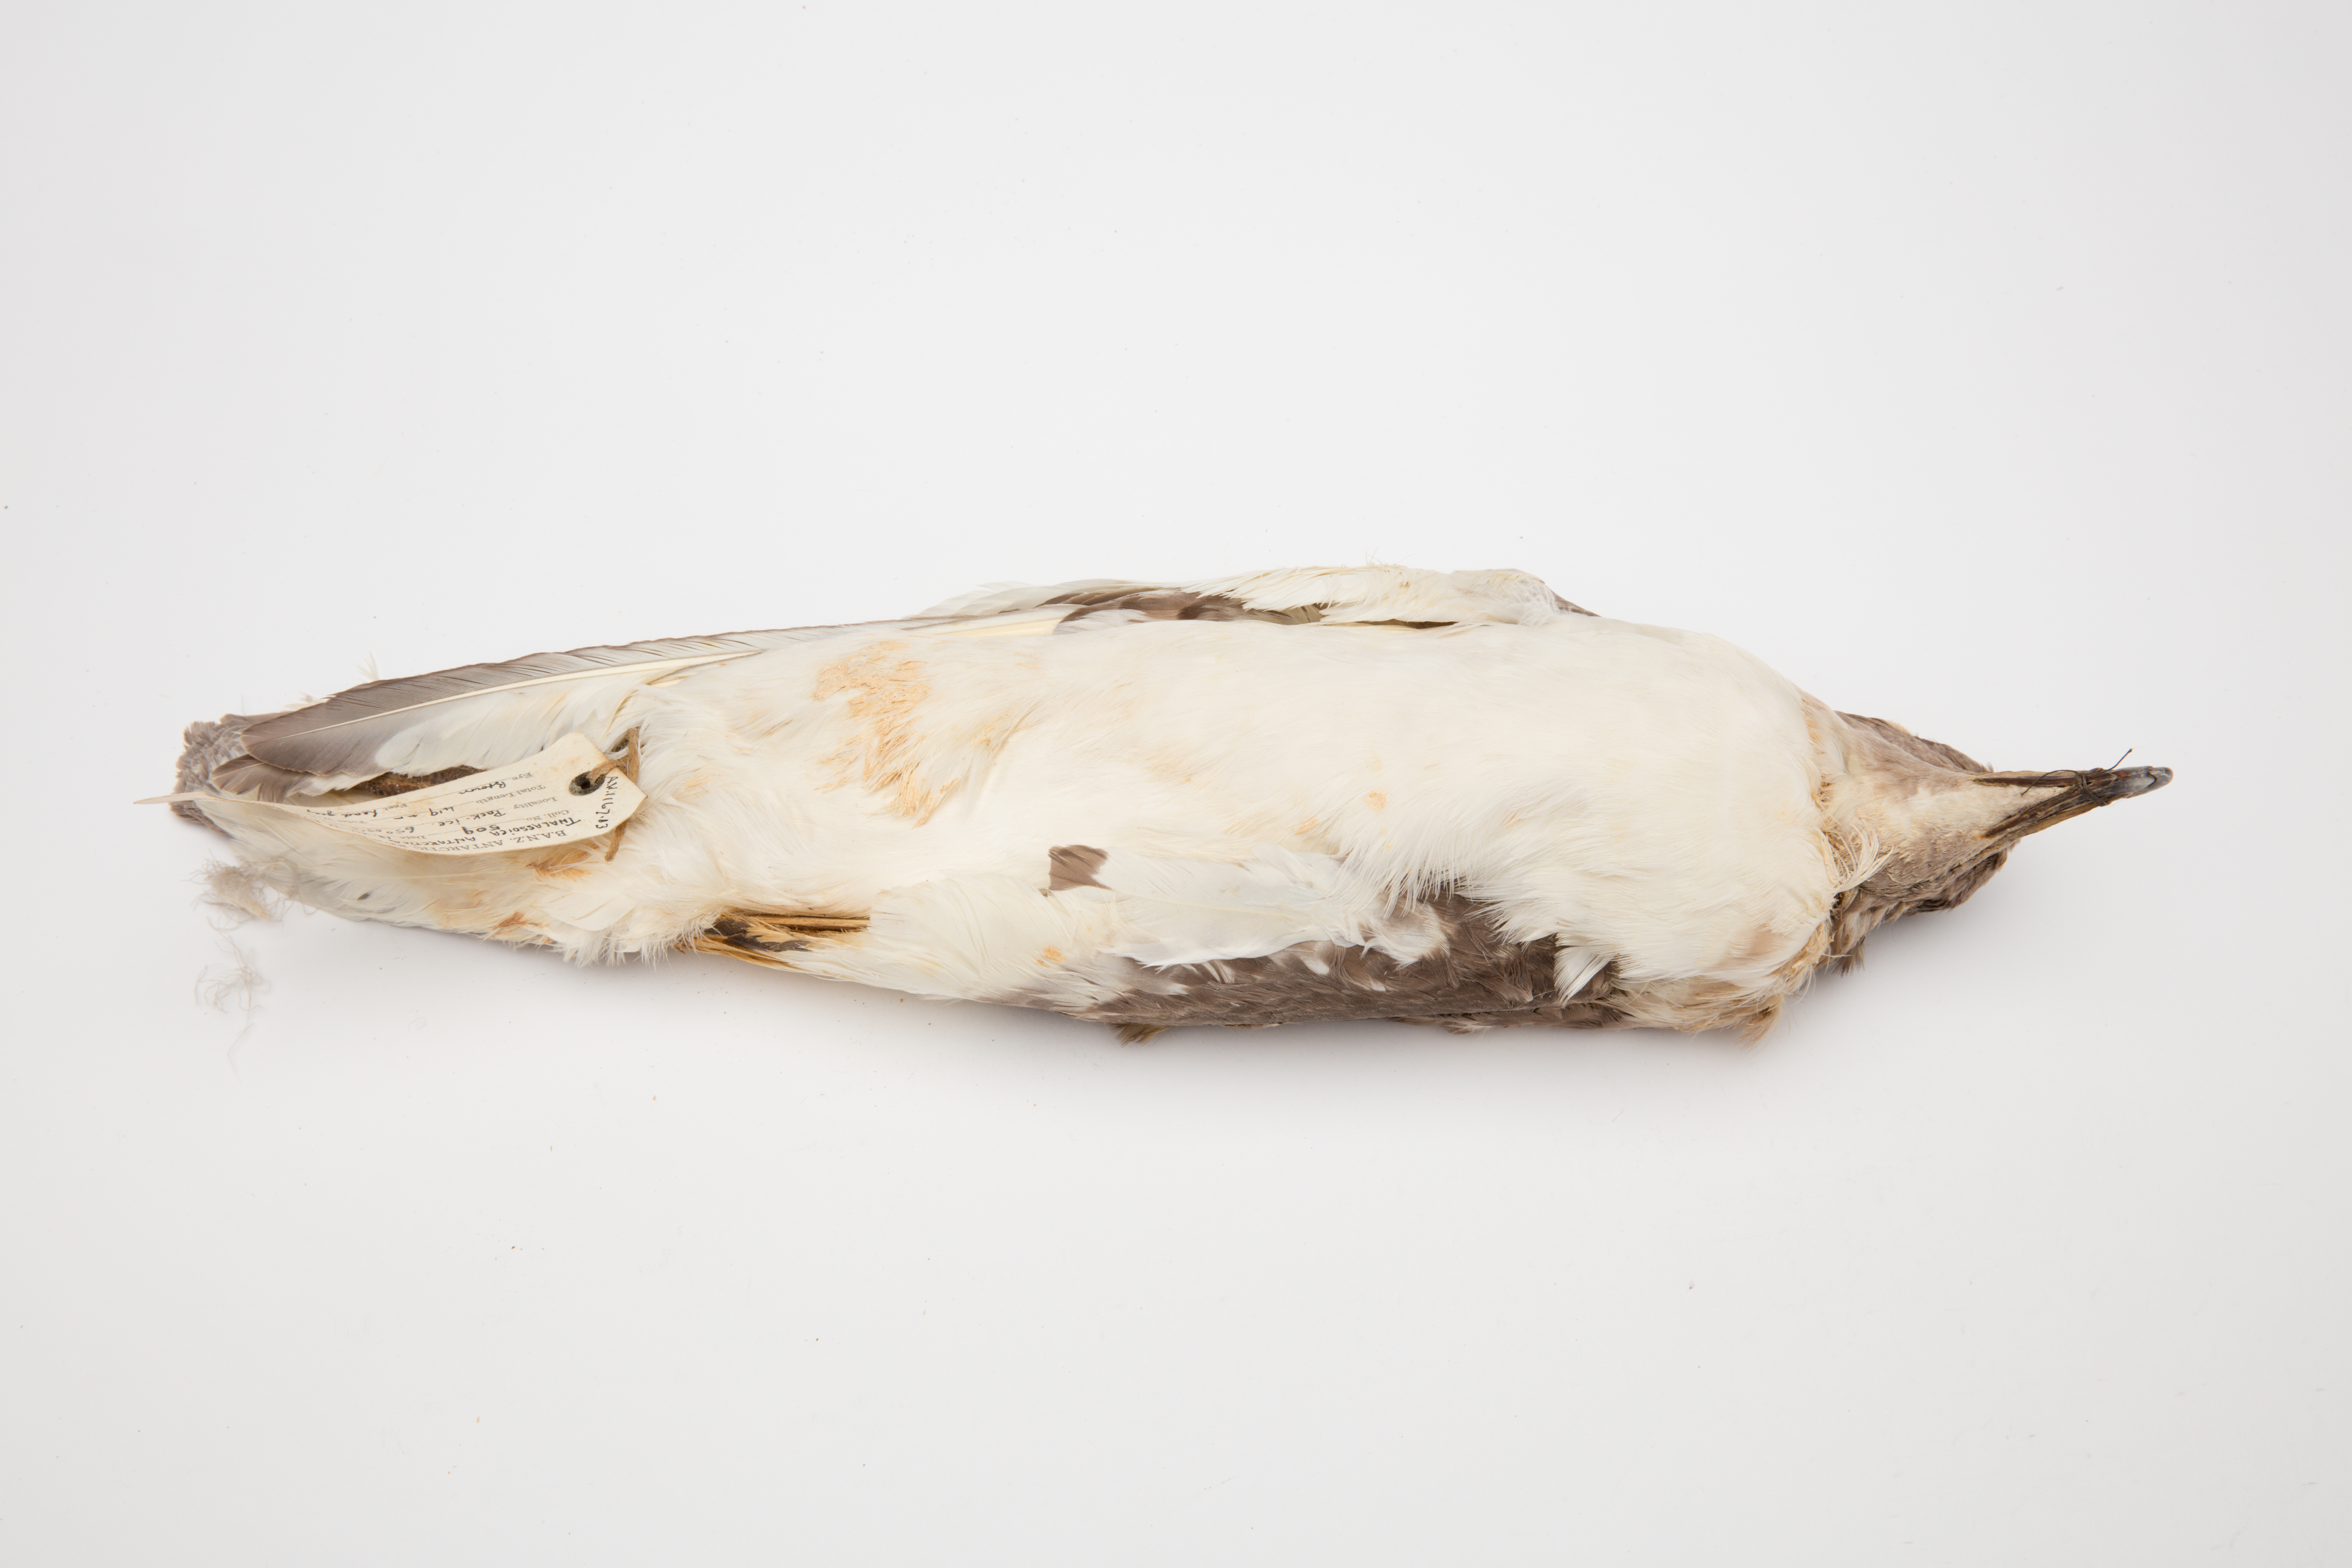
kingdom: Animalia
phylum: Chordata
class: Aves
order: Procellariiformes
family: Procellariidae
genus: Thalassoica
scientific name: Thalassoica antarctica
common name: Antarctic petrel
